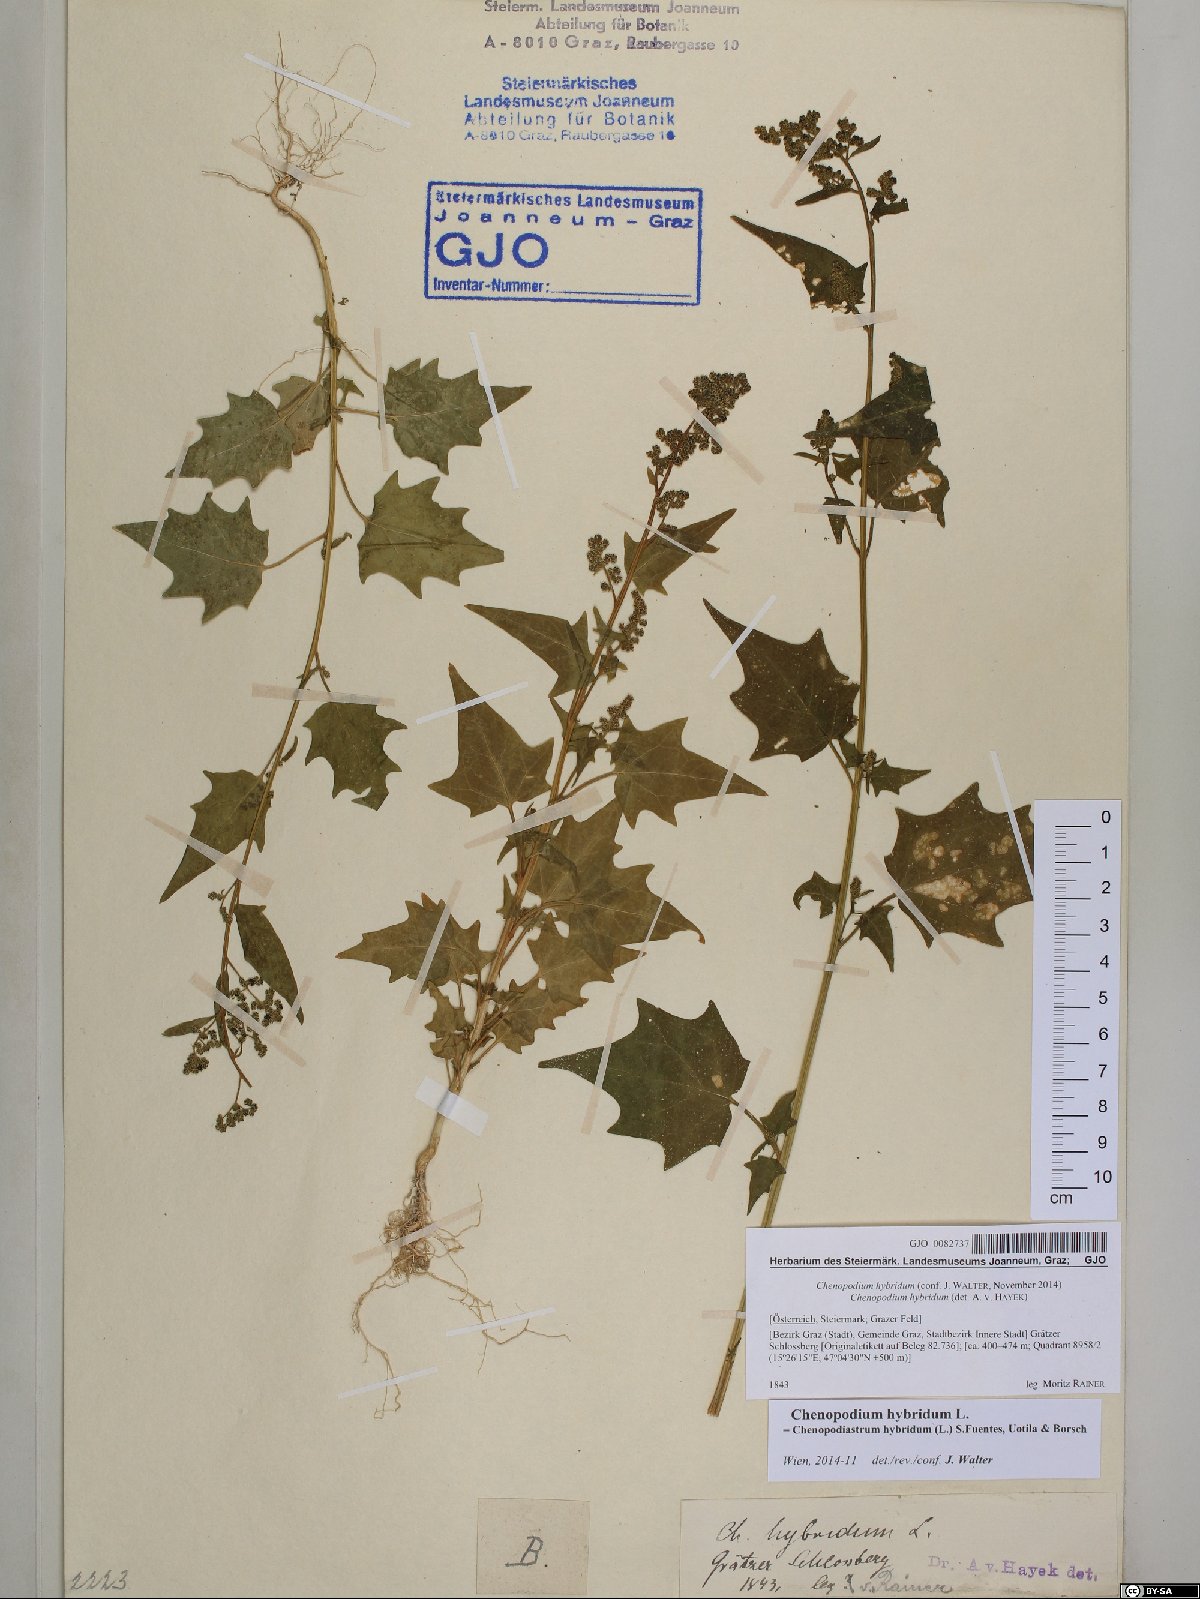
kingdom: Plantae
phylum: Tracheophyta
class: Magnoliopsida
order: Caryophyllales
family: Amaranthaceae
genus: Chenopodiastrum
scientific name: Chenopodiastrum hybridum
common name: Mapleleaf goosefoot
